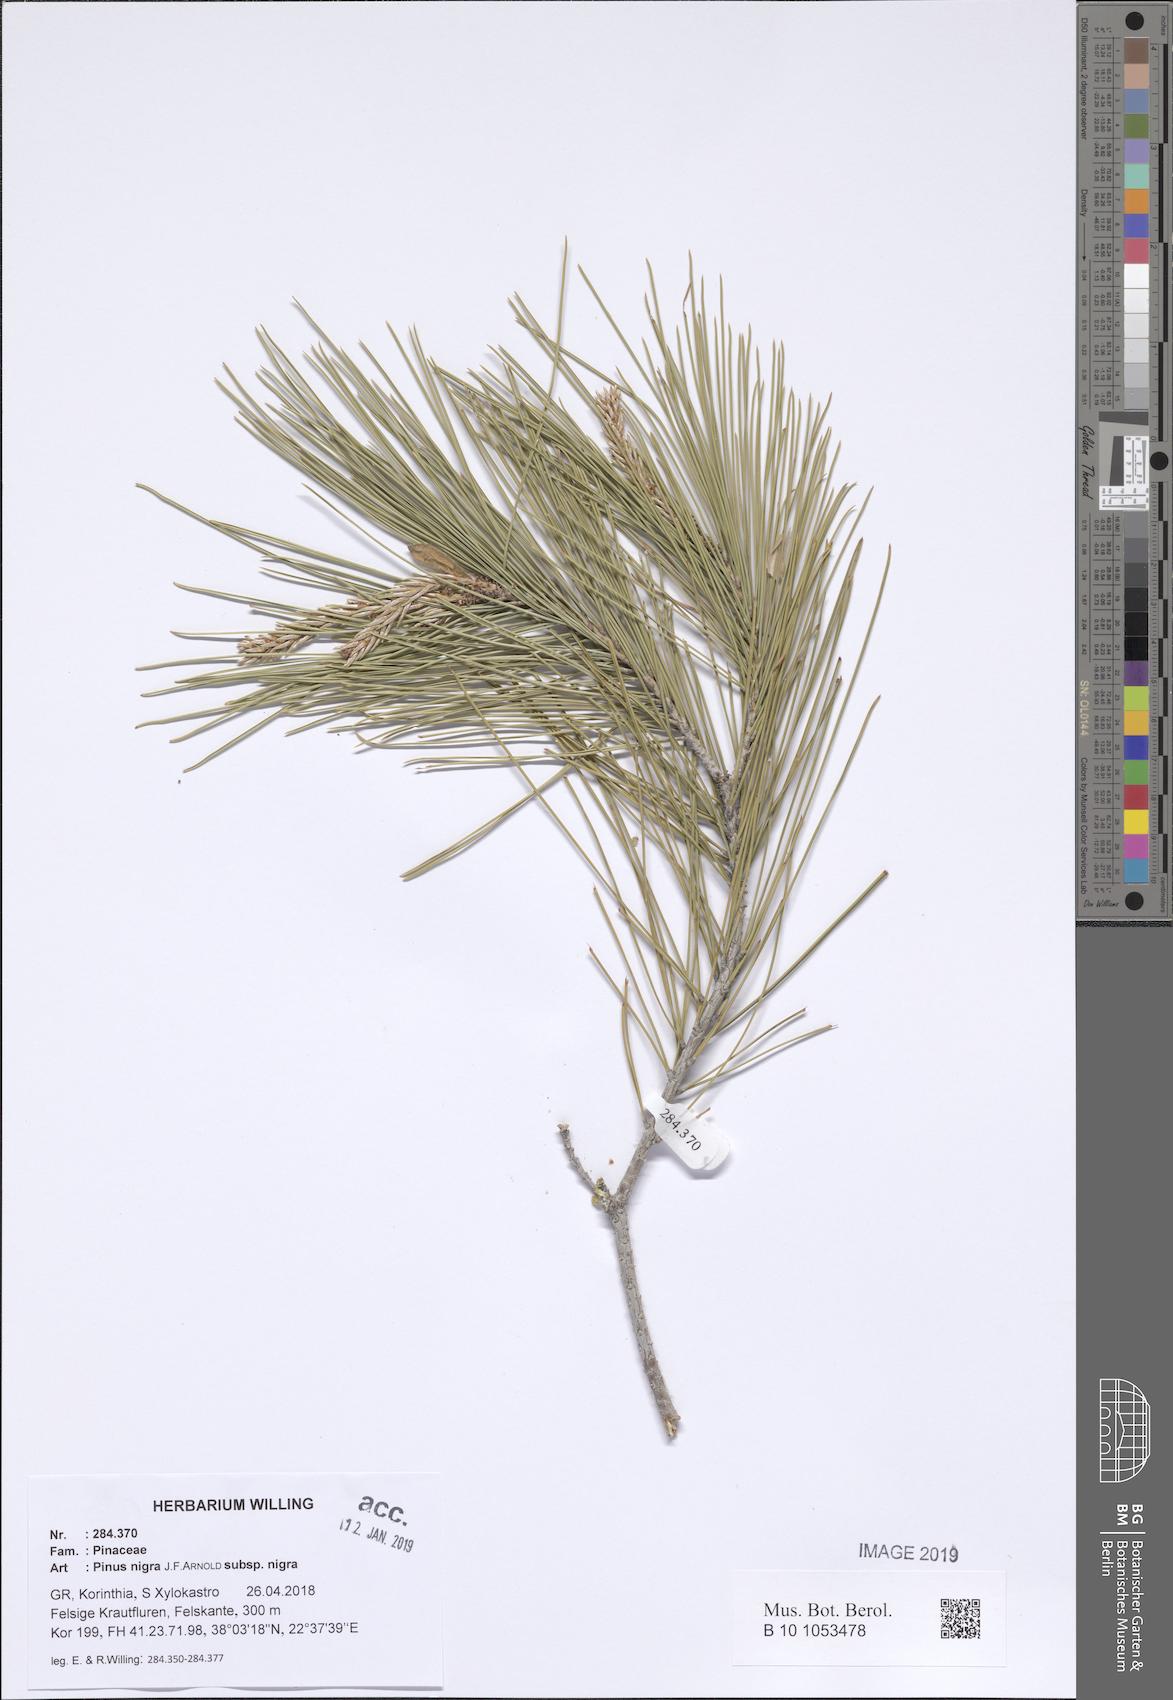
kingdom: Plantae
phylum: Tracheophyta
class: Pinopsida
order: Pinales
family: Pinaceae
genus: Pinus
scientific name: Pinus nigra
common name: Austrian pine
